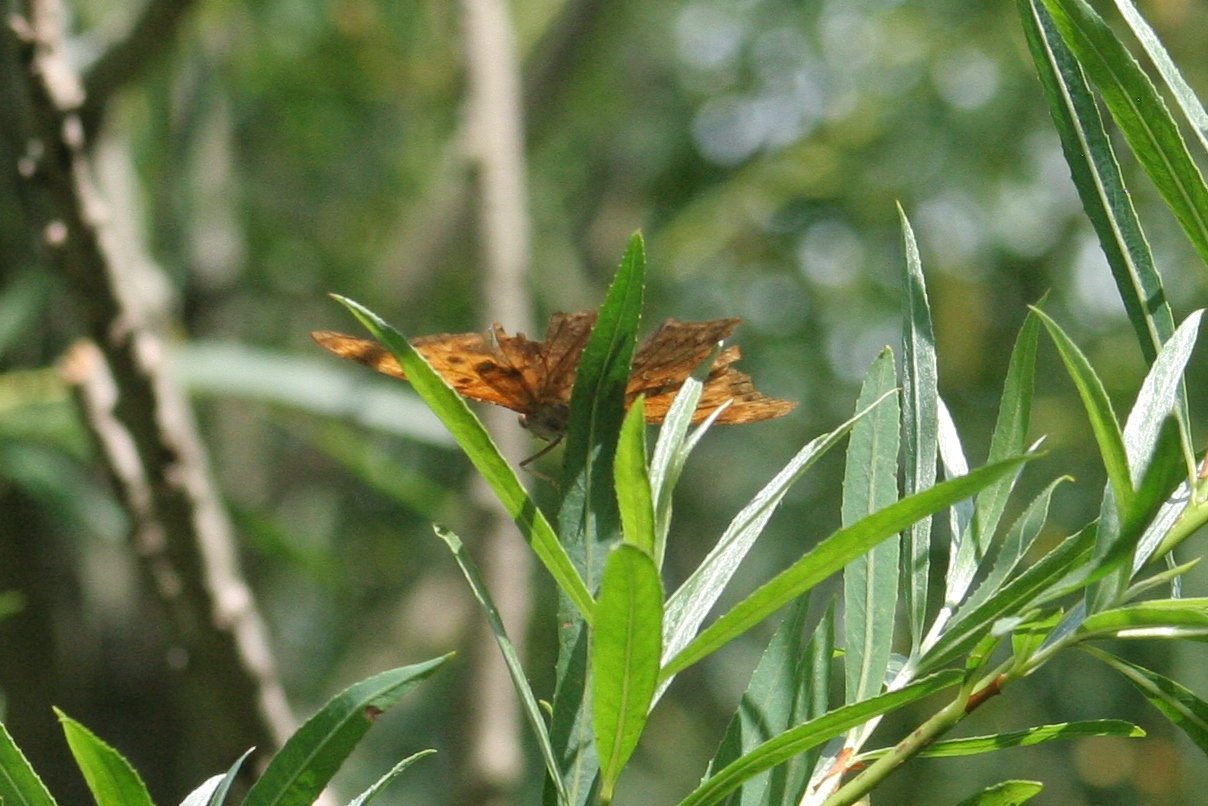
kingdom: Animalia
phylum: Arthropoda
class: Insecta
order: Lepidoptera
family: Nymphalidae
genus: Polygonia
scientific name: Polygonia interrogationis
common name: Question Mark
